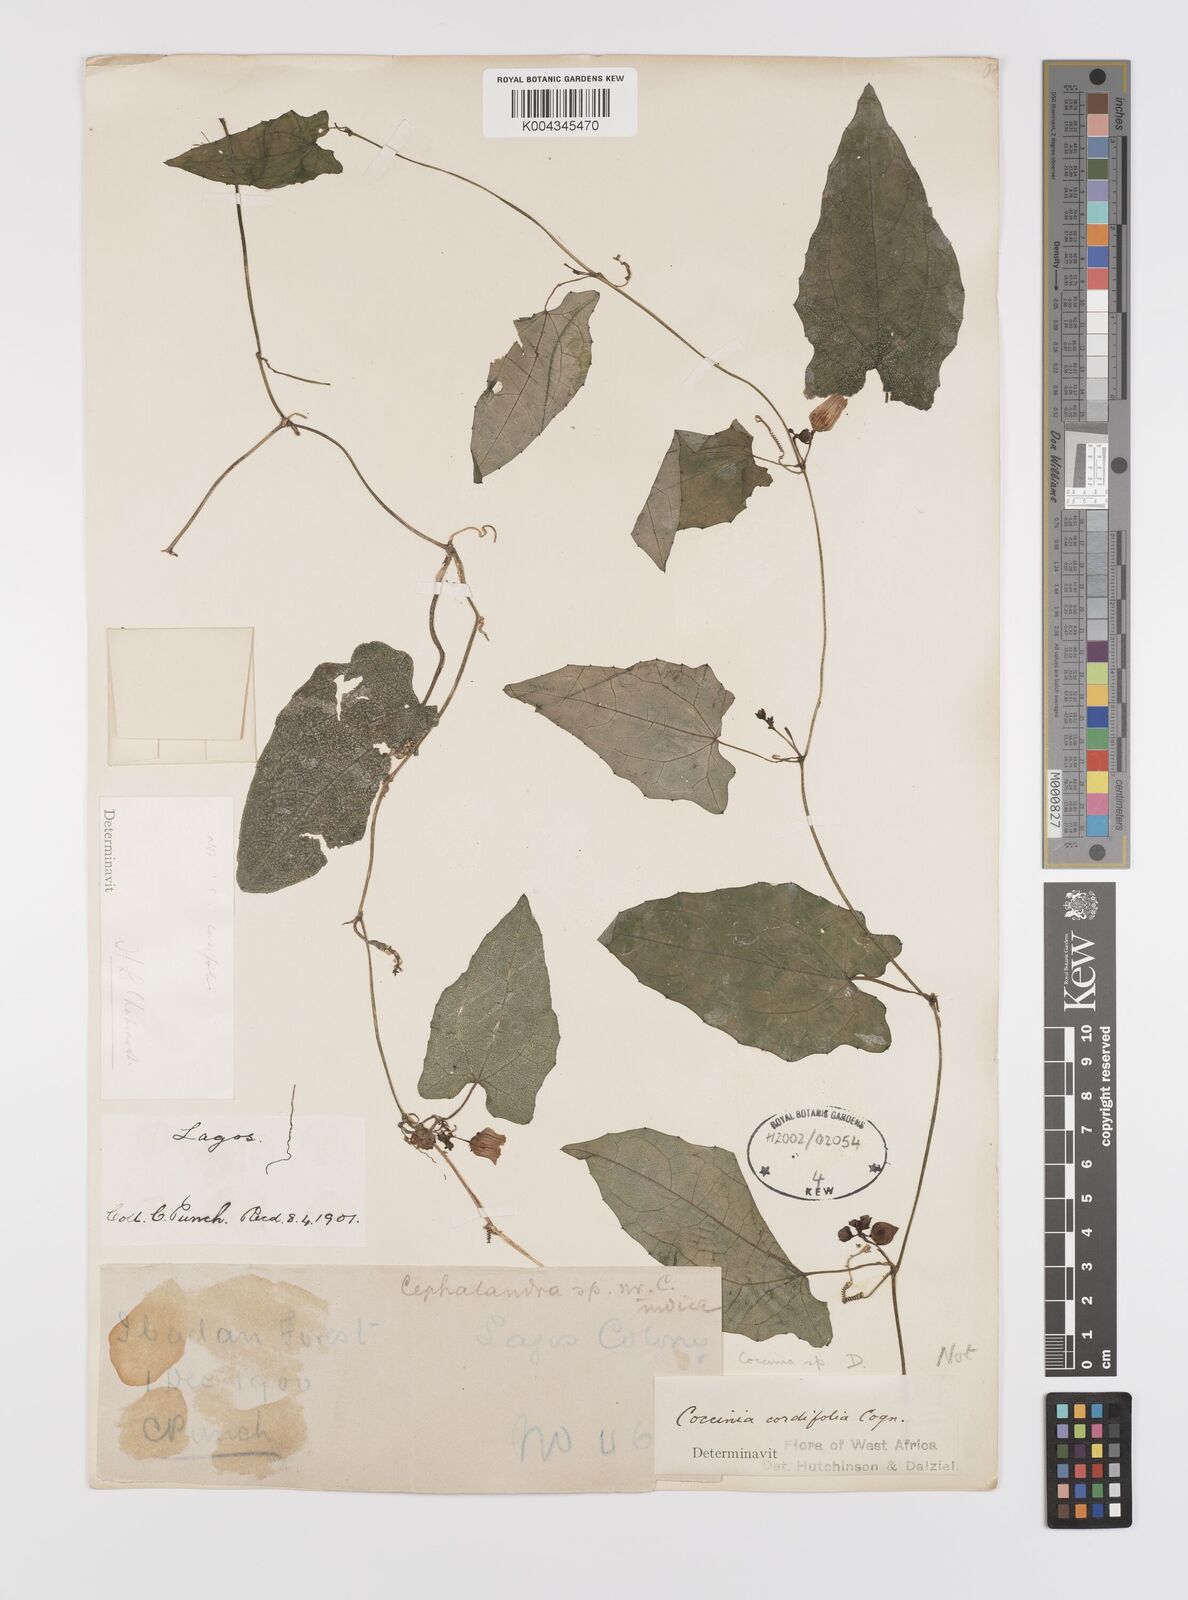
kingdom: Plantae
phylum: Tracheophyta
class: Magnoliopsida
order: Cucurbitales
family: Cucurbitaceae
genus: Coccinia
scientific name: Coccinia
